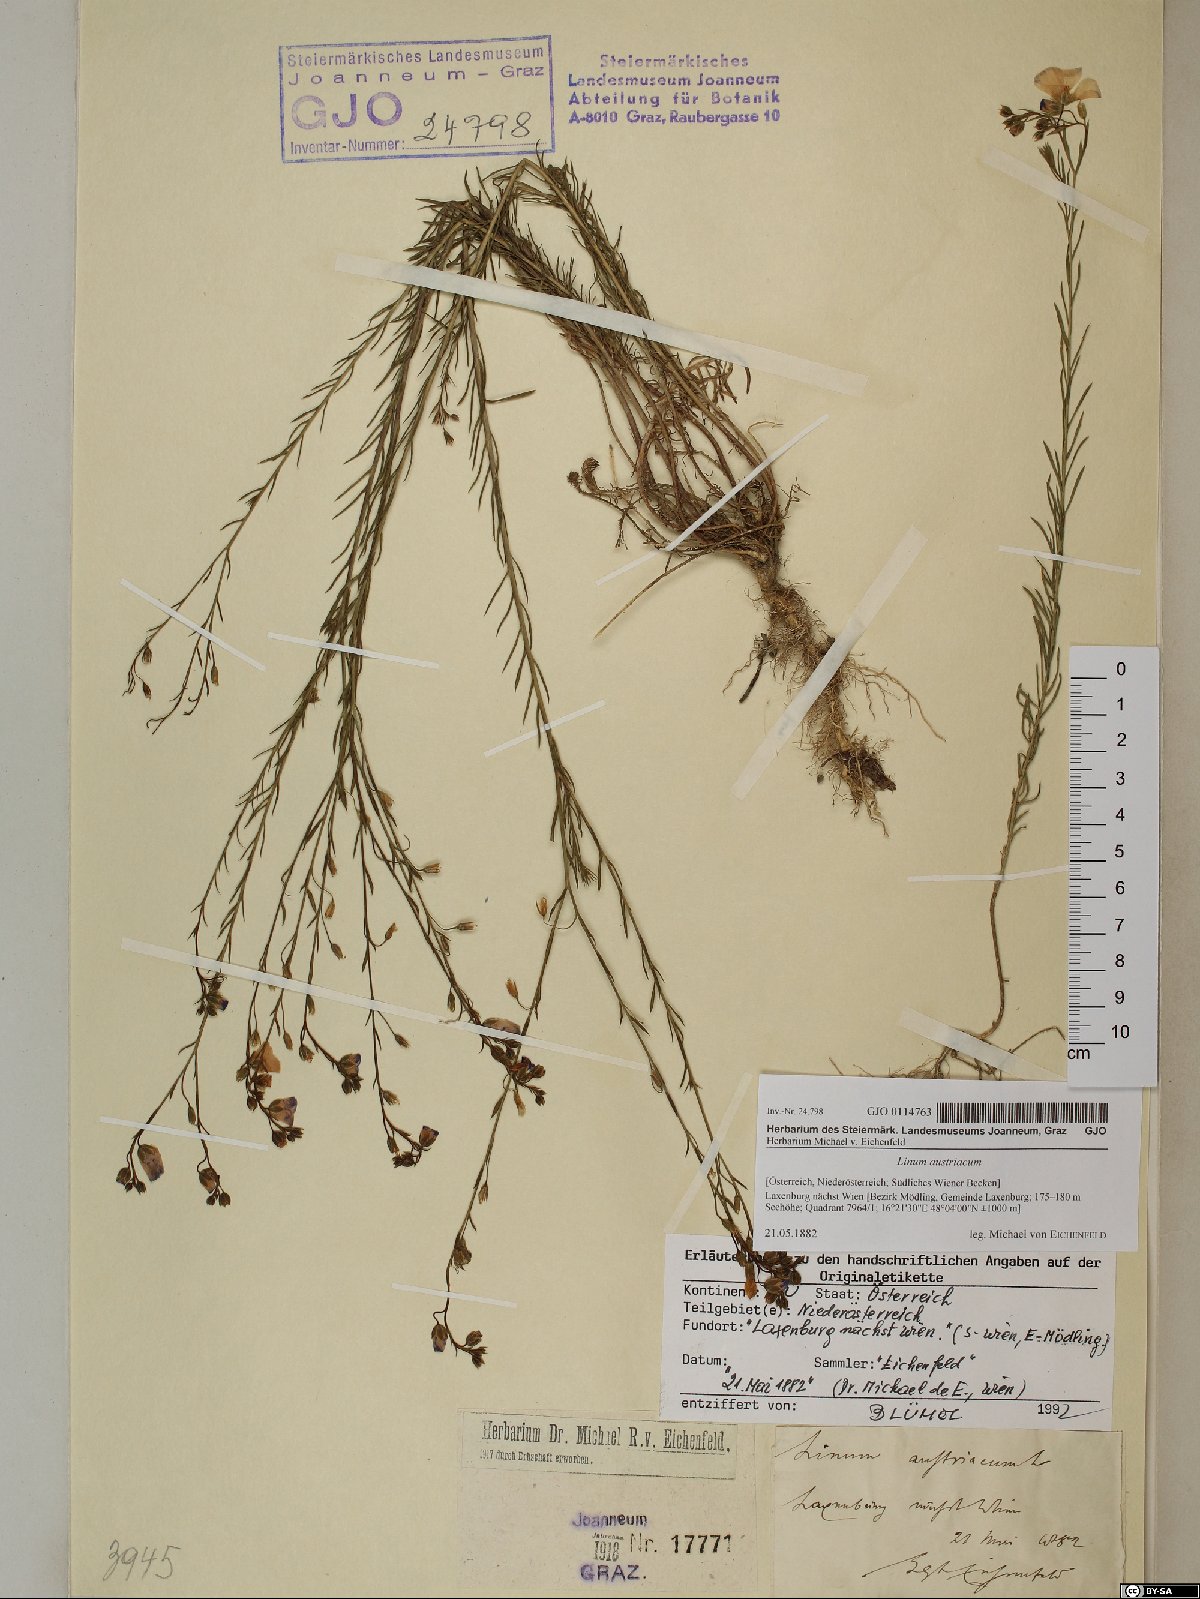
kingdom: Plantae
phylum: Tracheophyta
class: Magnoliopsida
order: Malpighiales
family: Linaceae
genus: Linum
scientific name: Linum austriacum
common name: Austrian flax
